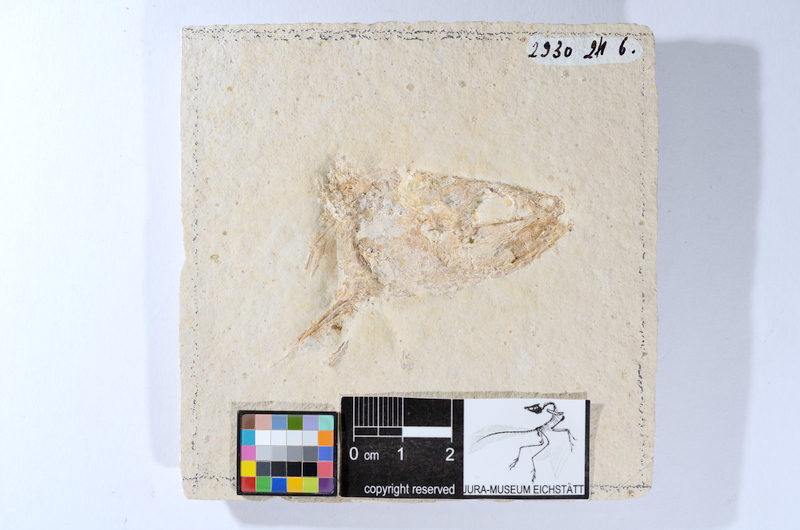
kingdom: Animalia
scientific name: Animalia
